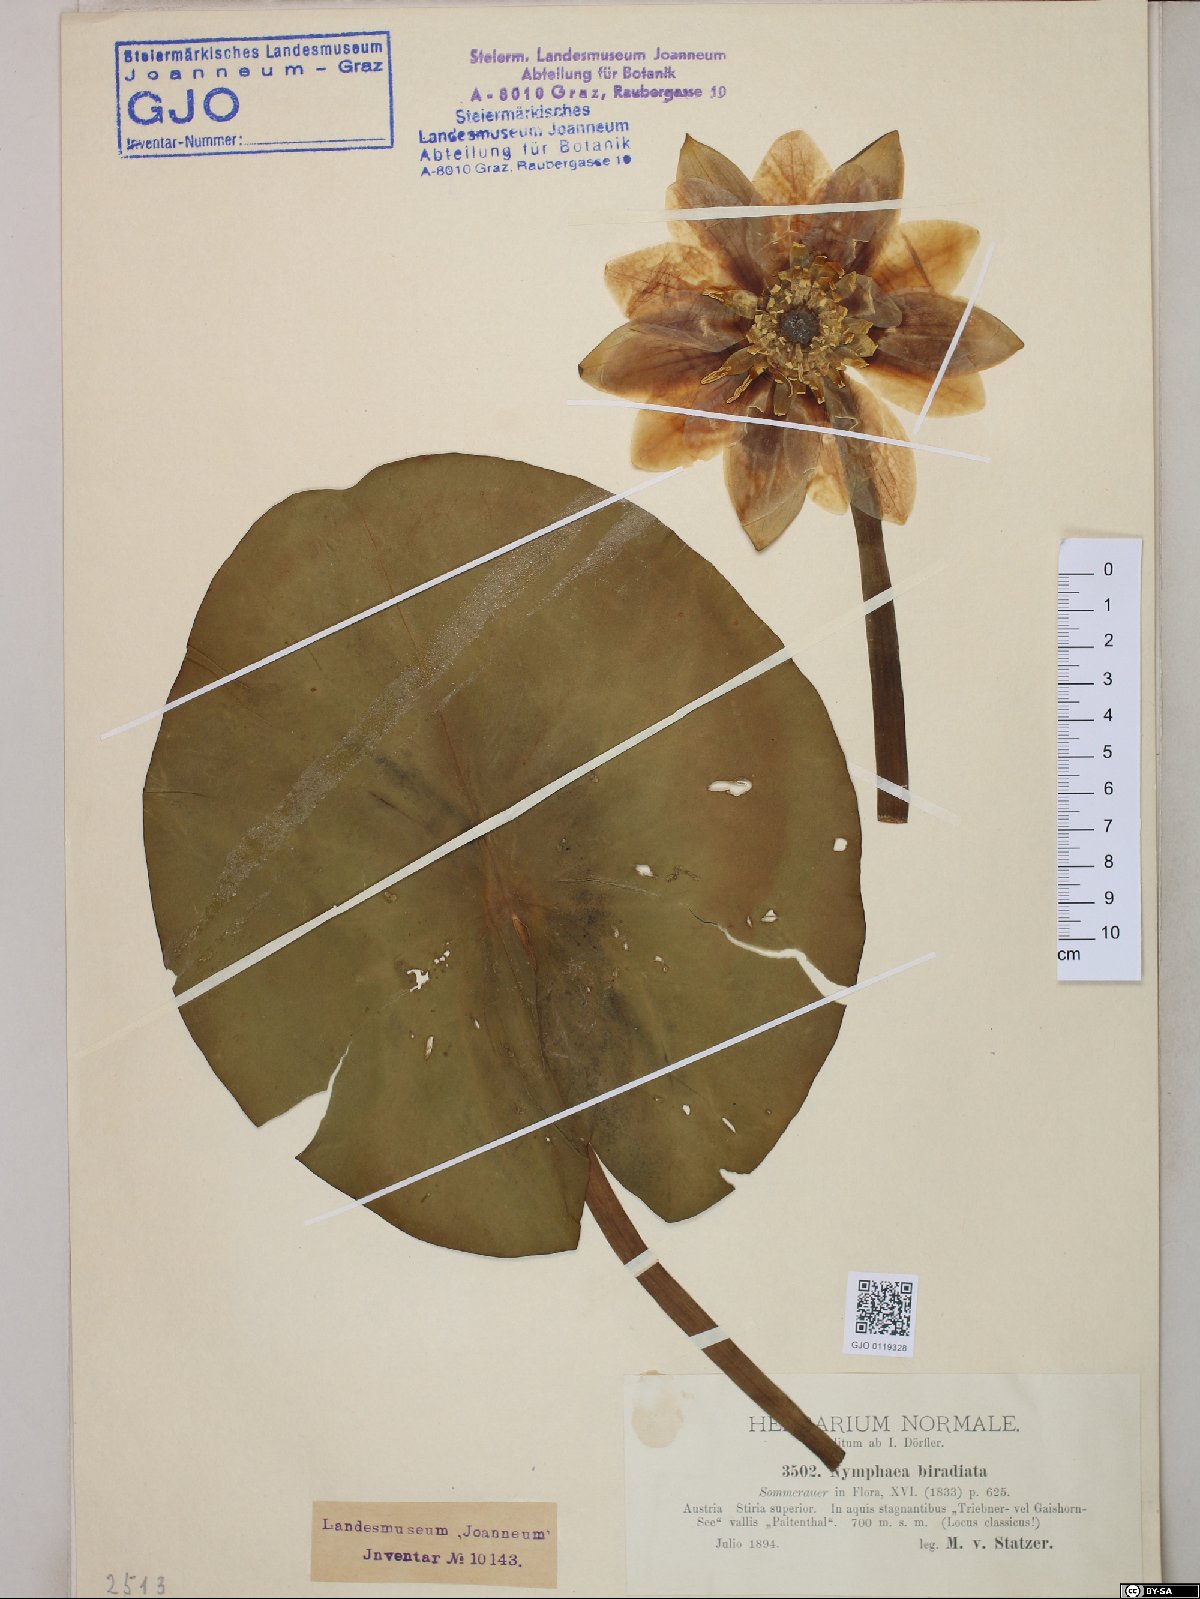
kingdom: Plantae
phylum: Tracheophyta
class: Magnoliopsida
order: Nymphaeales
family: Nymphaeaceae
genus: Nymphaea
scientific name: Nymphaea candida
